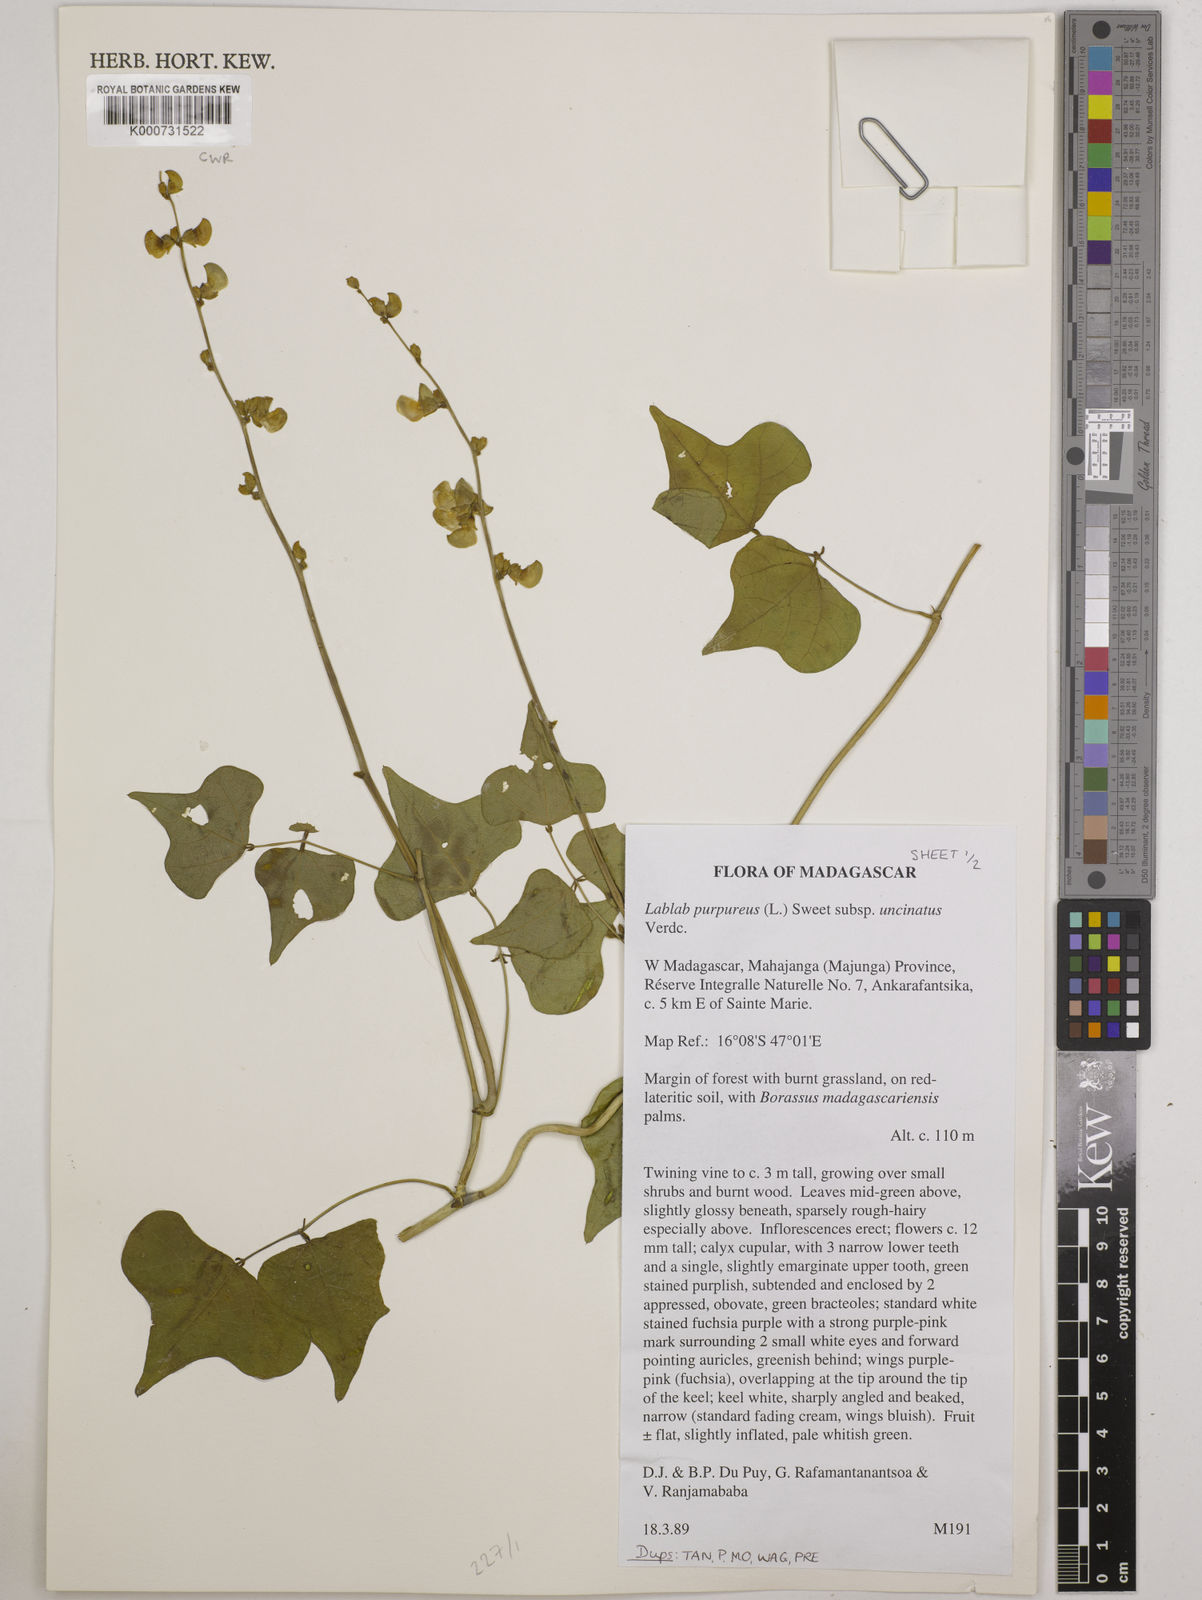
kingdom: Plantae
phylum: Tracheophyta
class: Magnoliopsida
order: Fabales
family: Fabaceae
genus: Lablab
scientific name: Lablab purpureus
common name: Lablab-bean
